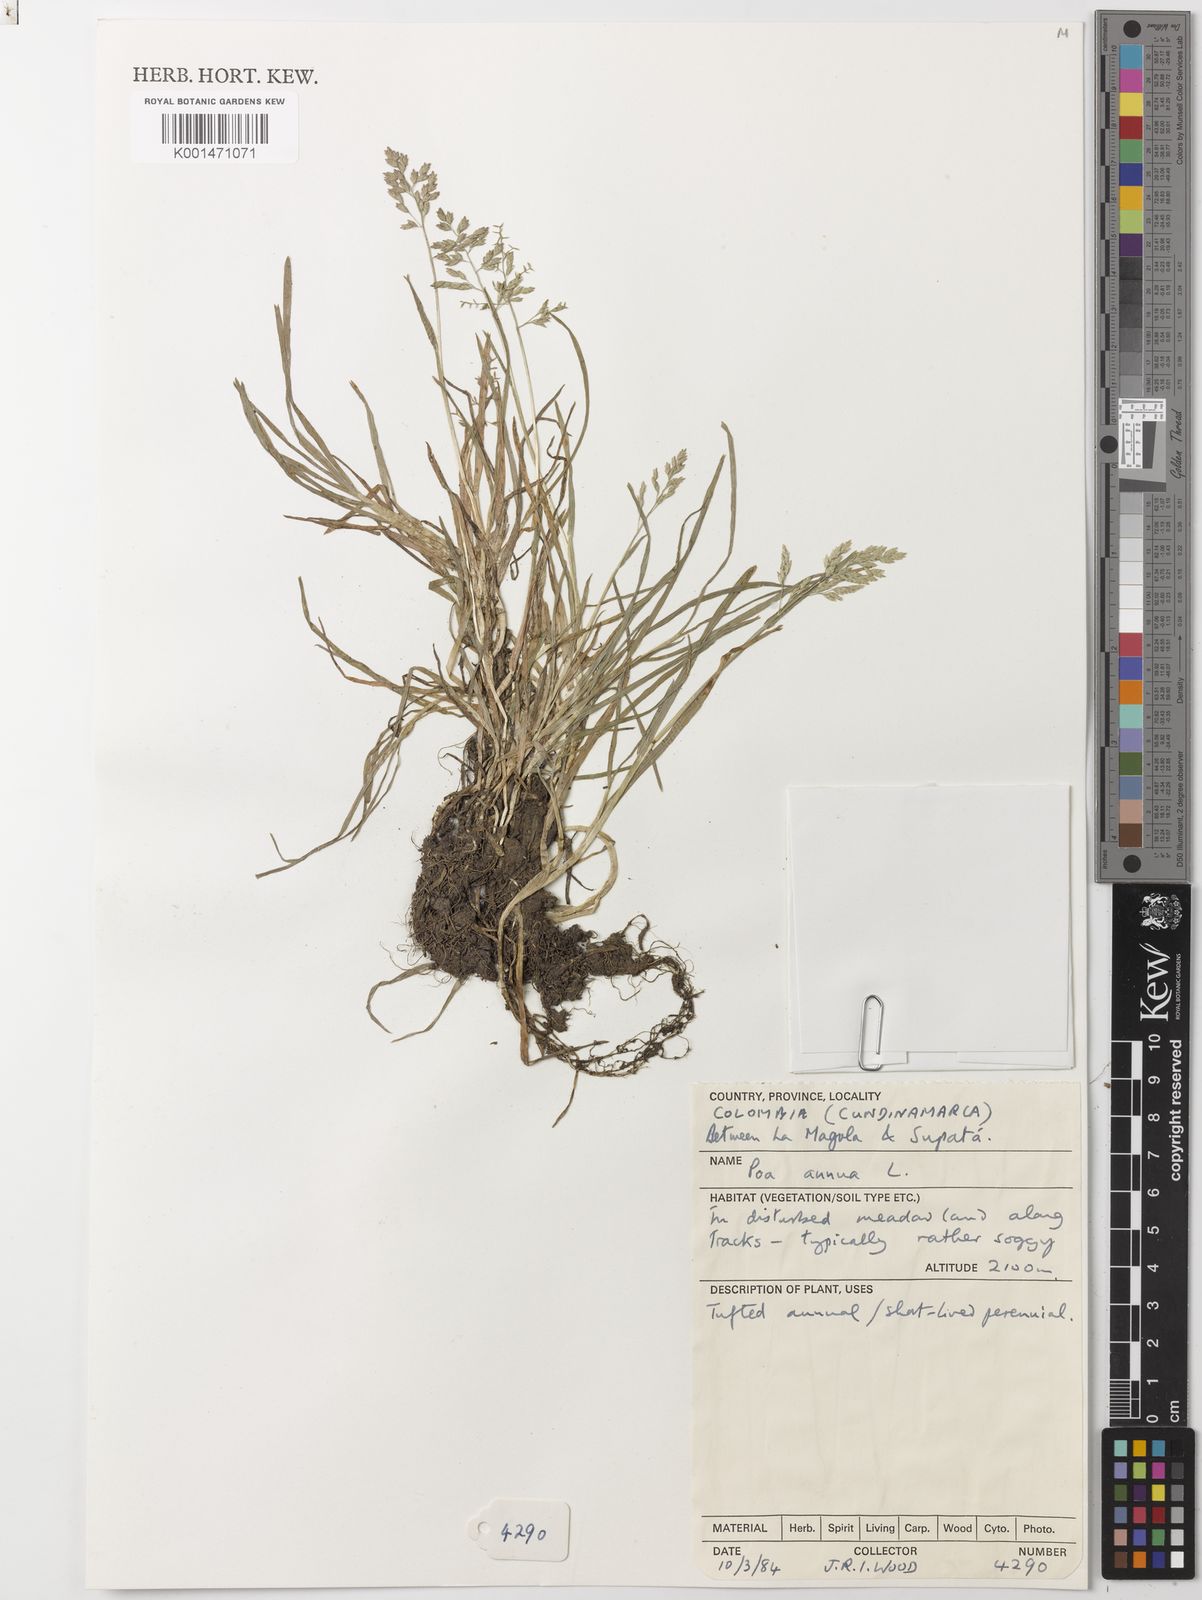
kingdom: Plantae
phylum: Tracheophyta
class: Liliopsida
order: Poales
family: Poaceae
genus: Poa
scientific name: Poa annua
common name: Annual bluegrass
